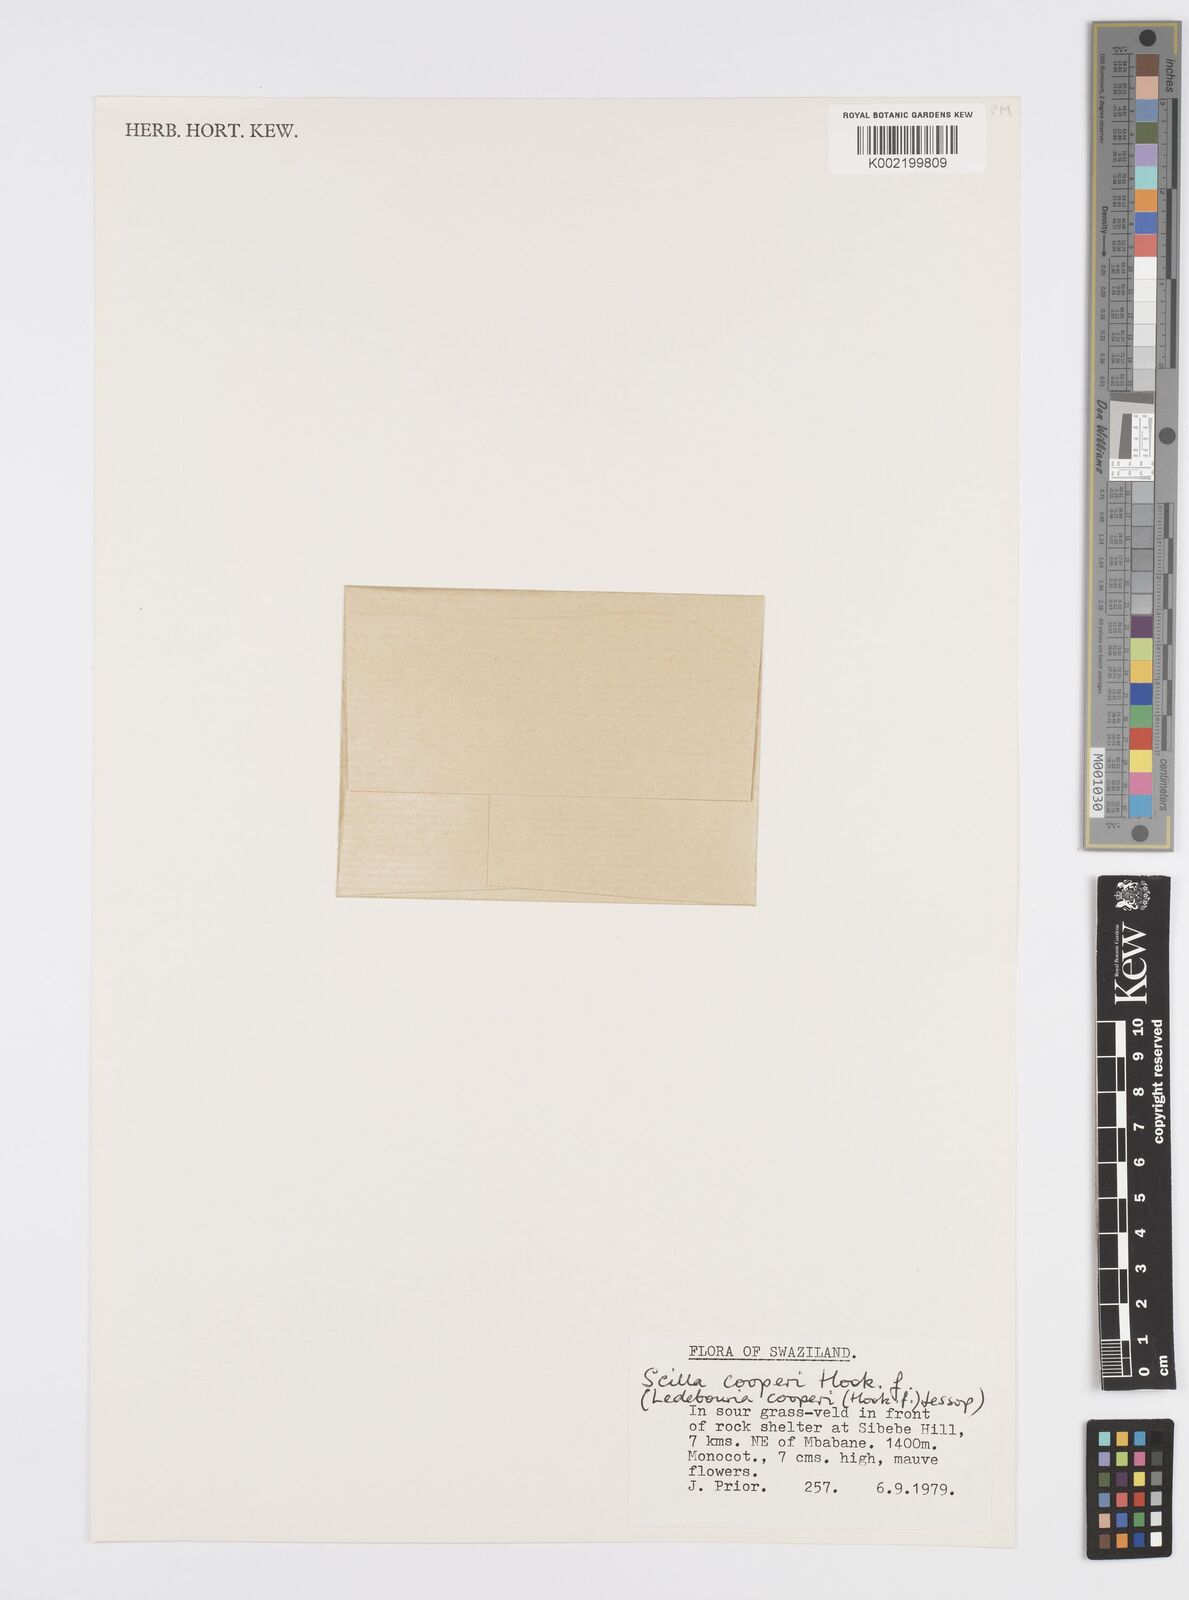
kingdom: Plantae
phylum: Tracheophyta
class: Liliopsida
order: Asparagales
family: Asparagaceae
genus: Ledebouria
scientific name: Ledebouria cooperi
